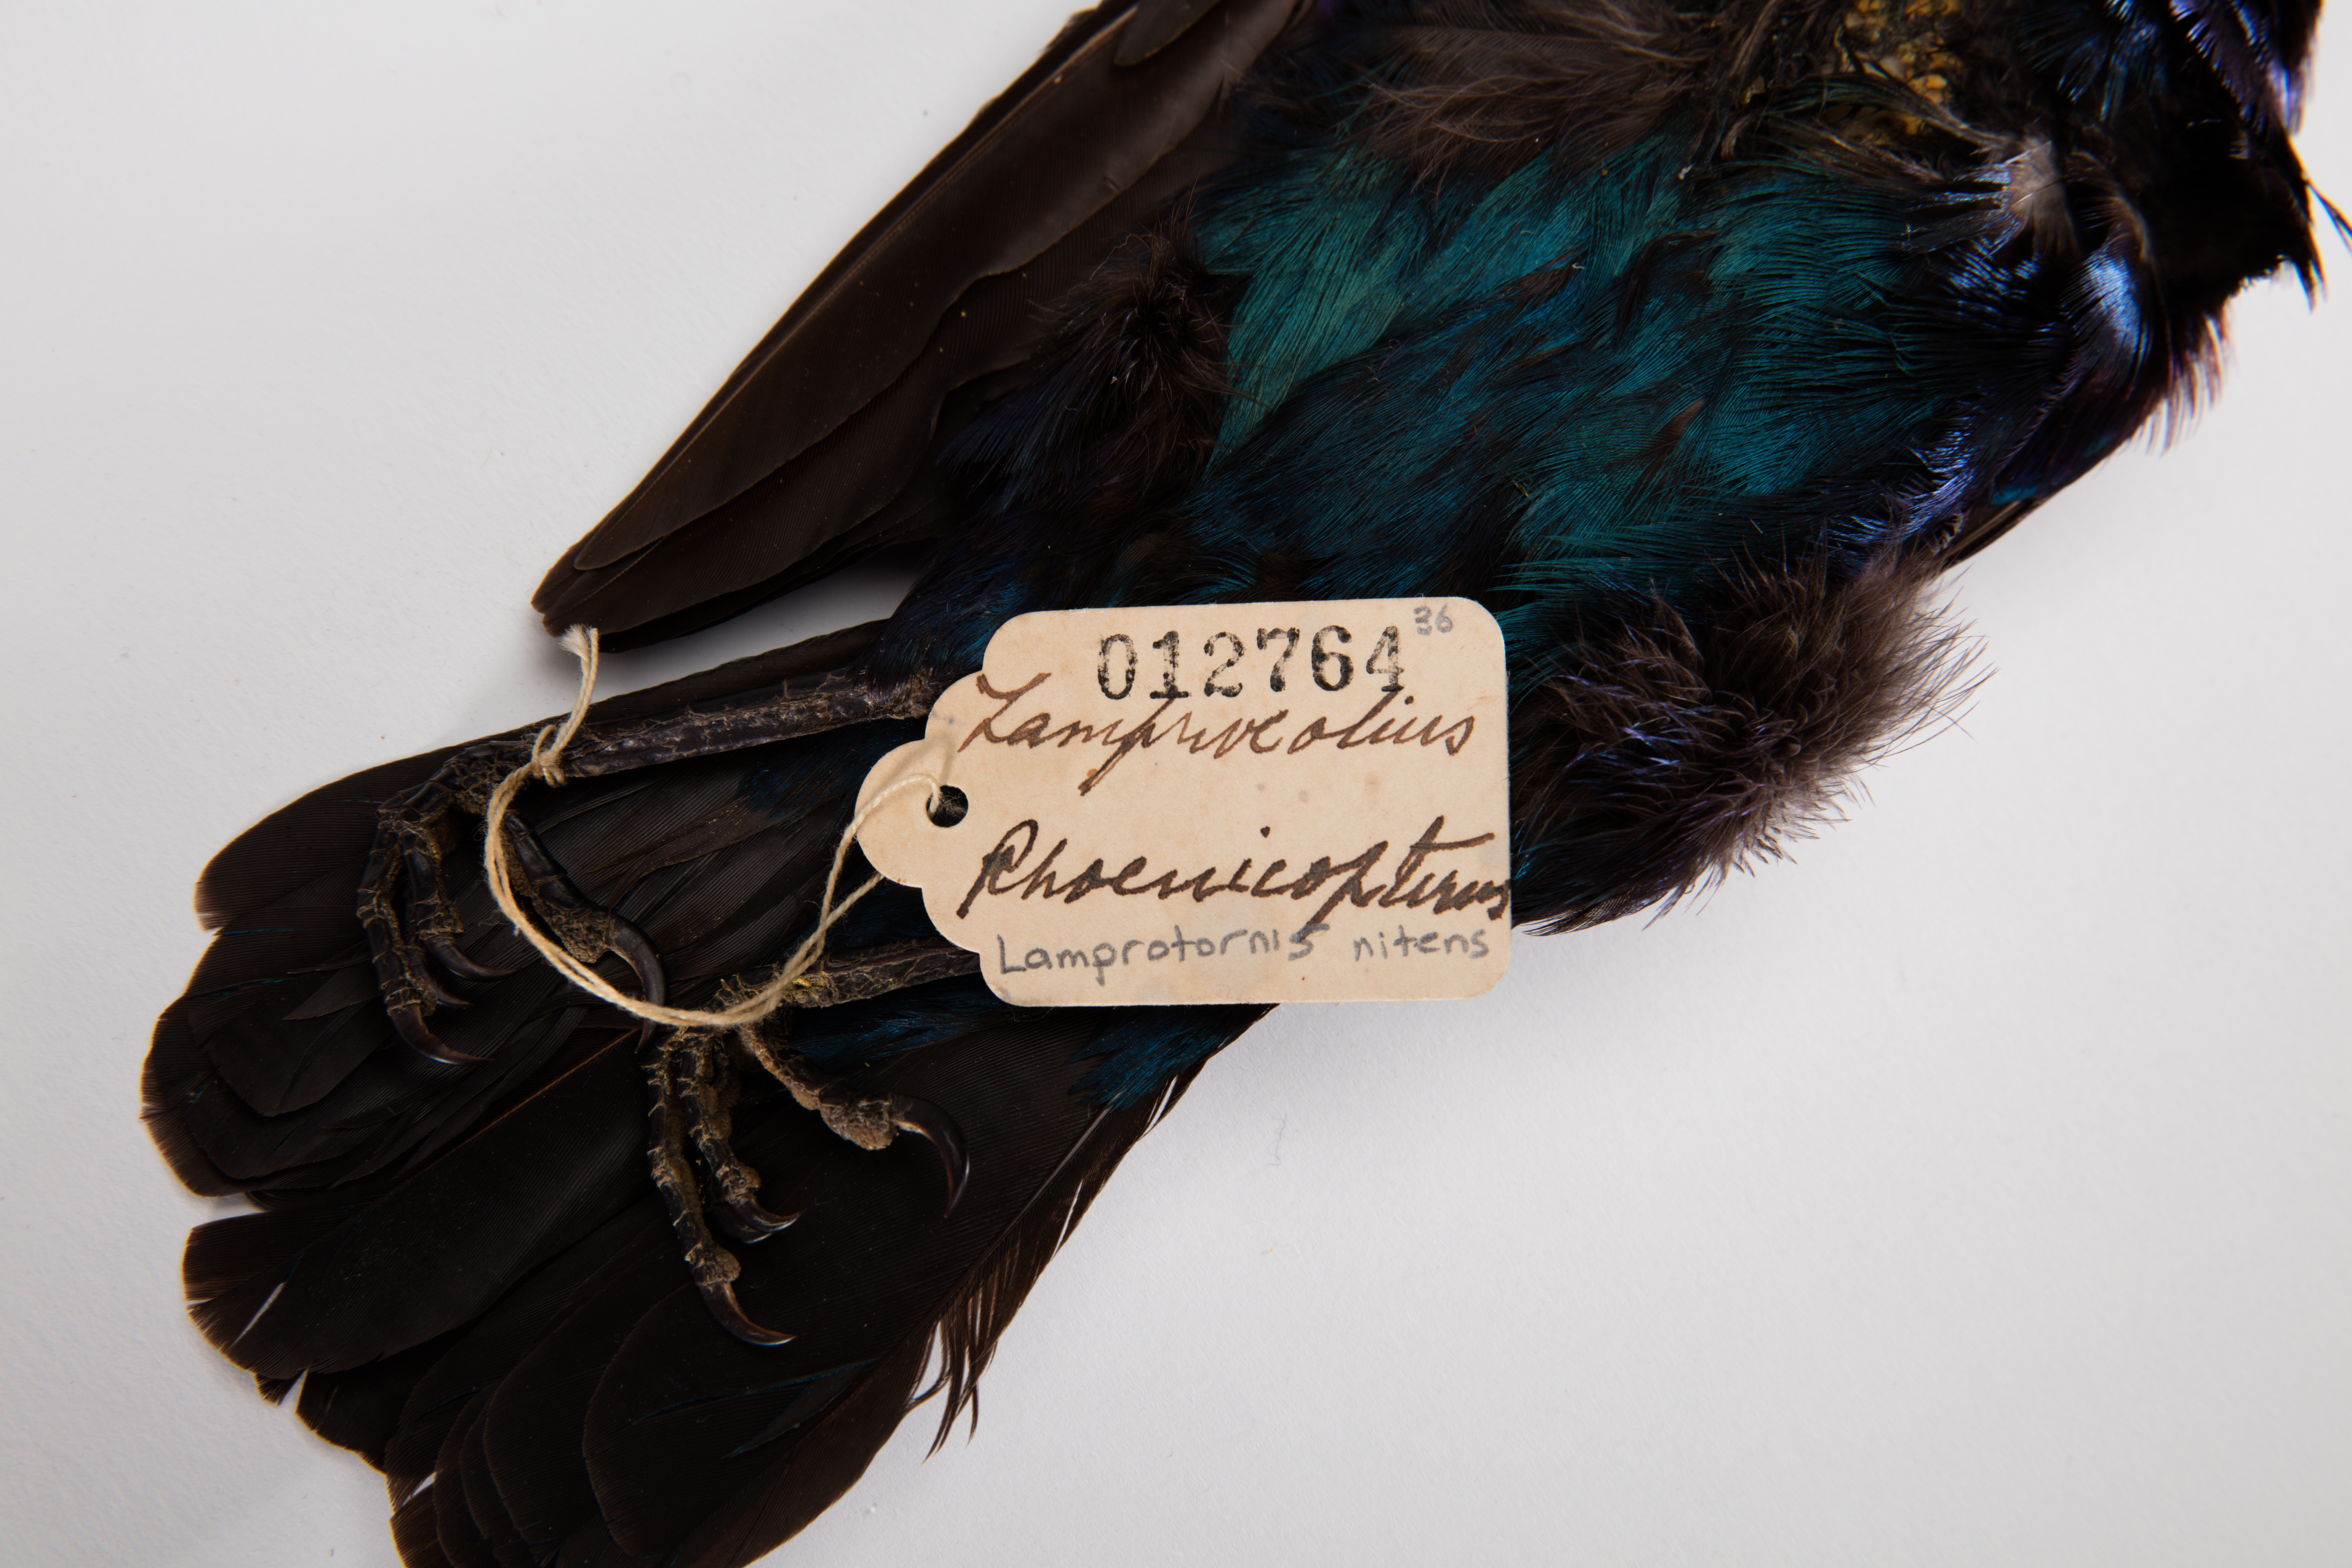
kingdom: Animalia
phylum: Chordata
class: Aves
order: Passeriformes
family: Sturnidae
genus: Lamprotornis
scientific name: Lamprotornis nitens
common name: Cape starling
